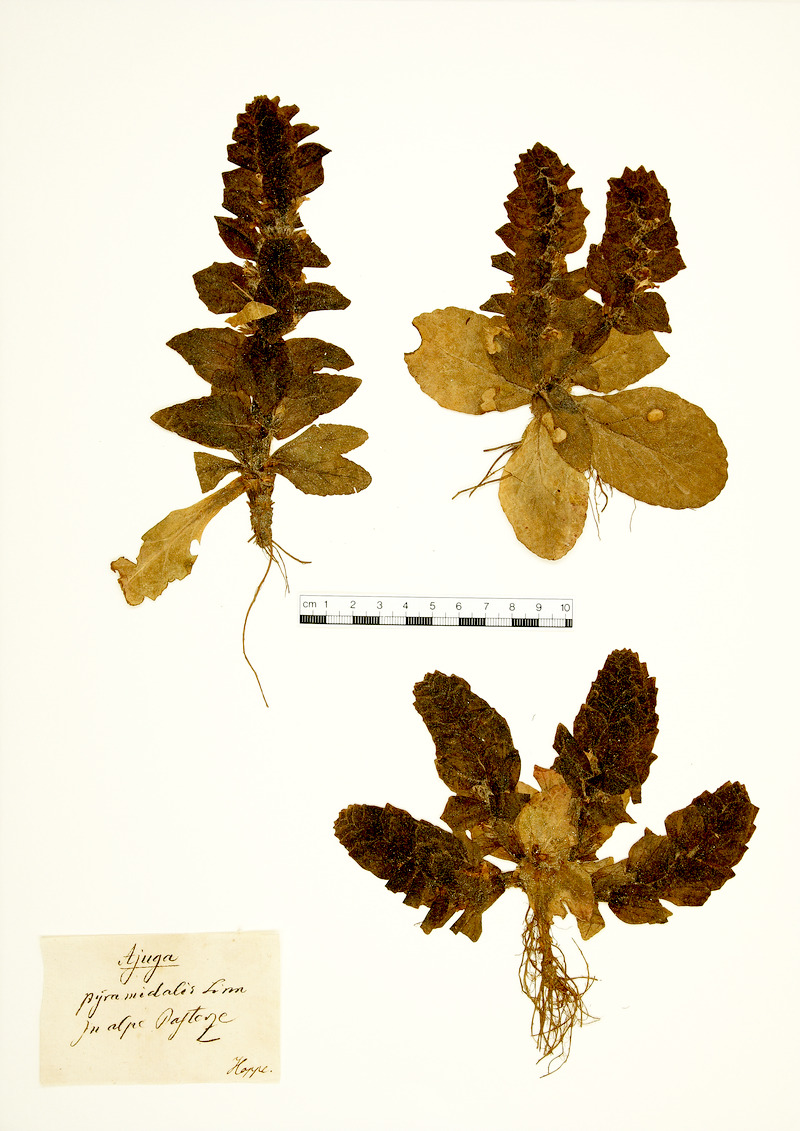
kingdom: Plantae
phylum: Tracheophyta
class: Magnoliopsida
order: Lamiales
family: Lamiaceae
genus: Ajuga
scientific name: Ajuga pyramidalis
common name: Pyramid bugle
